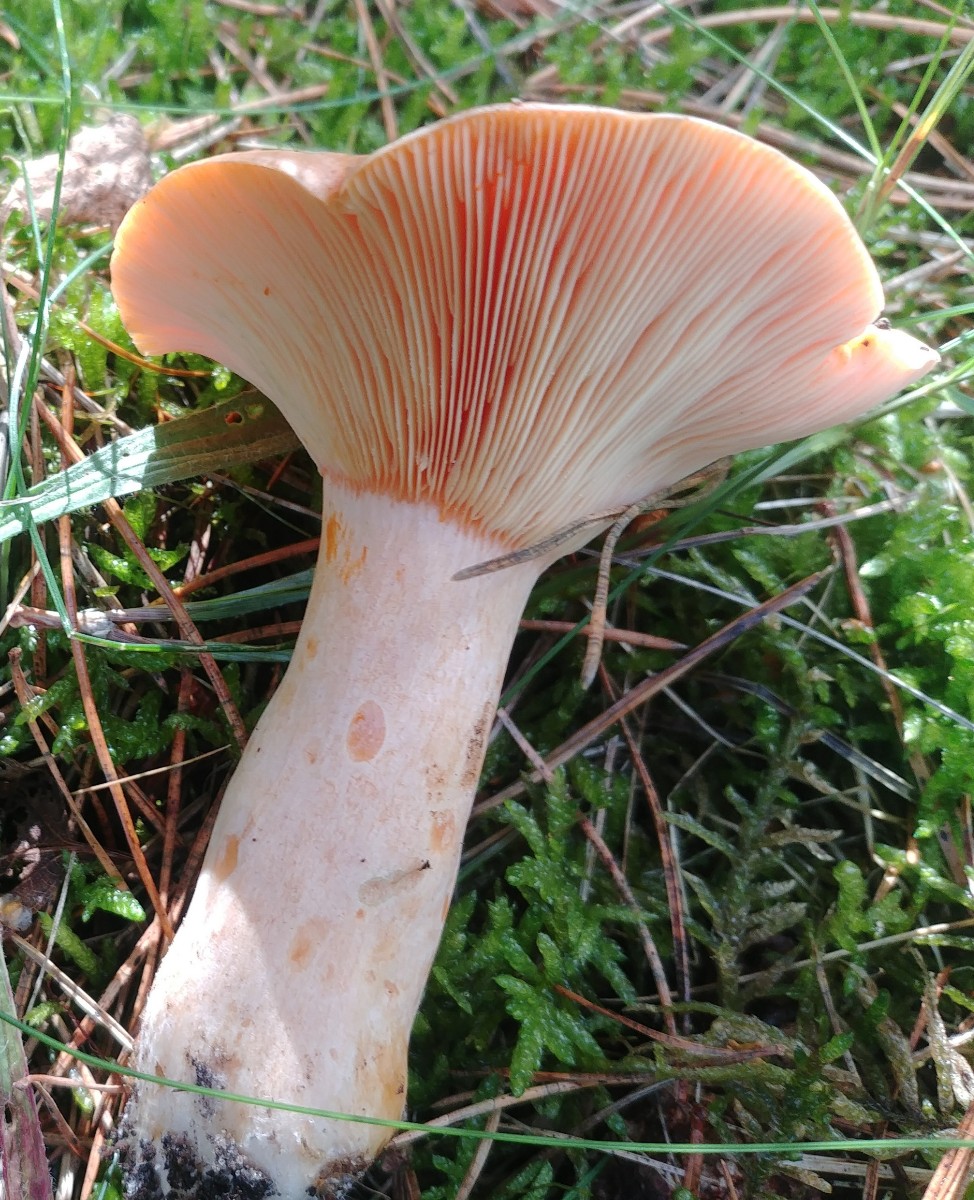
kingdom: Fungi
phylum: Basidiomycota
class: Agaricomycetes
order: Russulales
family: Russulaceae
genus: Lactarius
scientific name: Lactarius deliciosus
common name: velsmagende mælkehat
